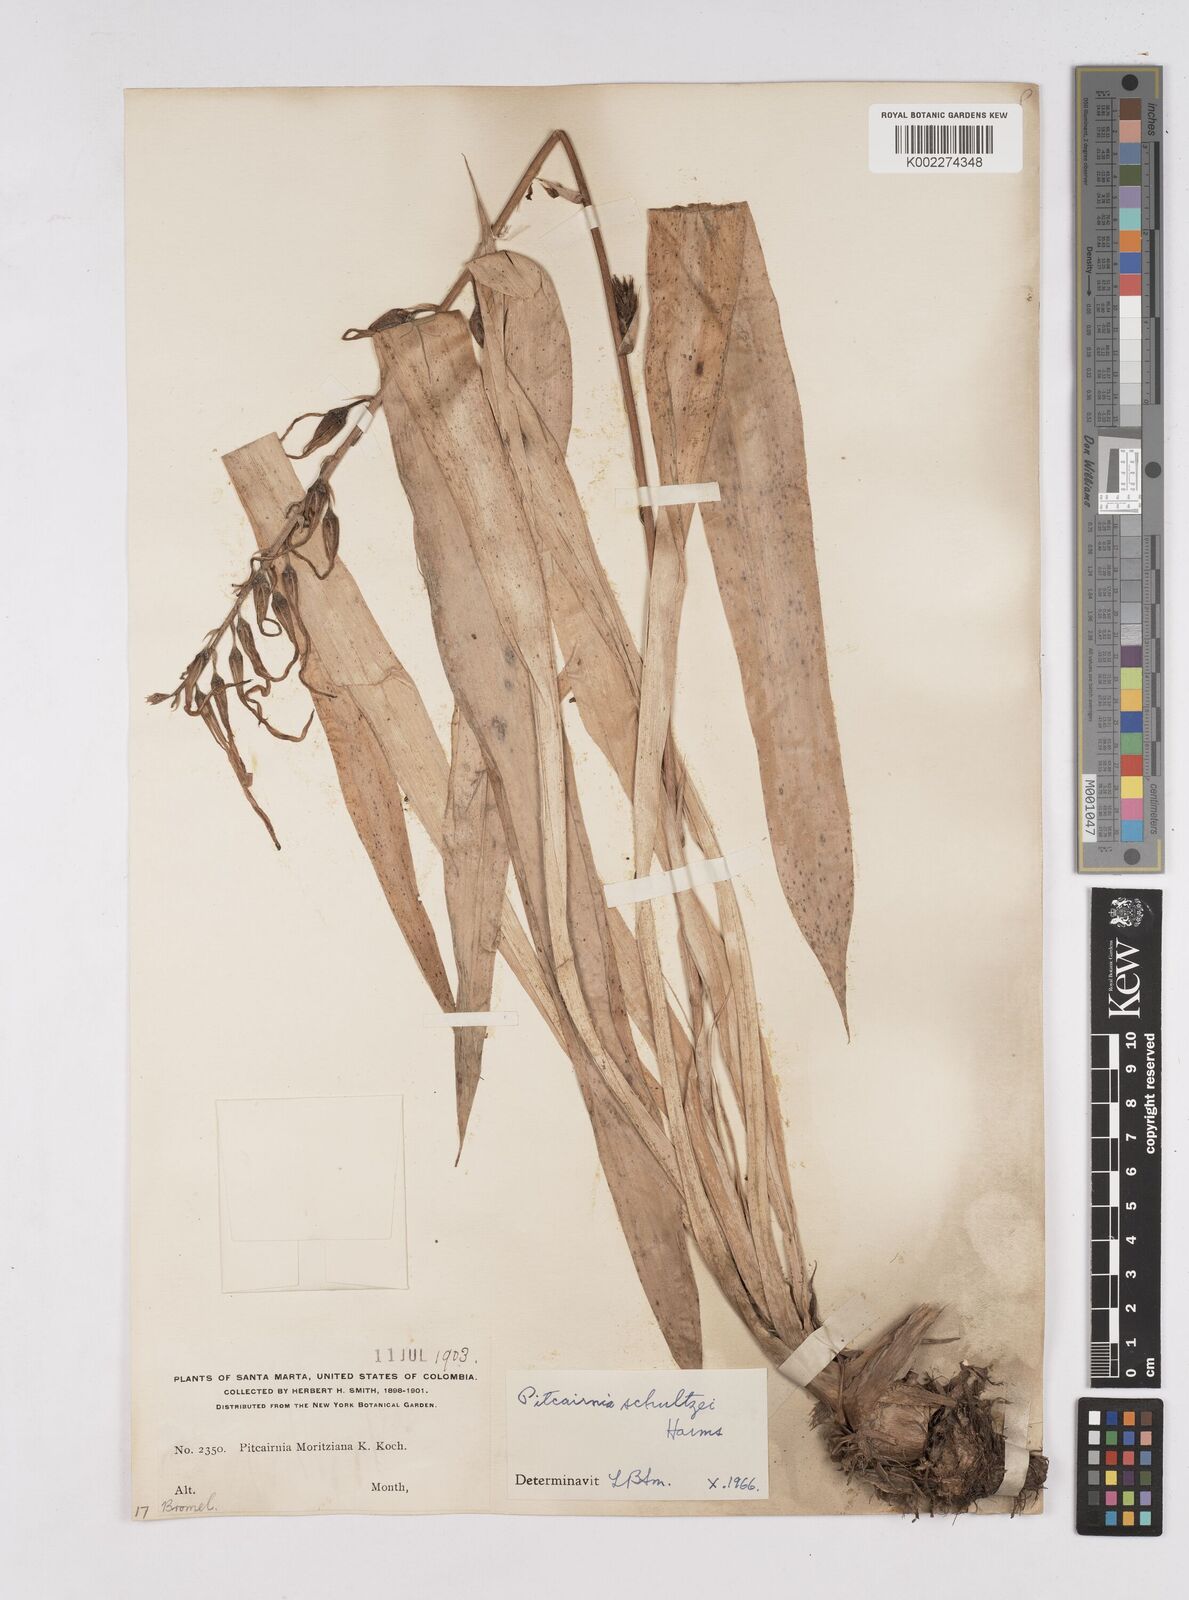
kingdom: Plantae
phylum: Tracheophyta
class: Liliopsida
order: Poales
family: Bromeliaceae
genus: Pitcairnia
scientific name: Pitcairnia schultzei
